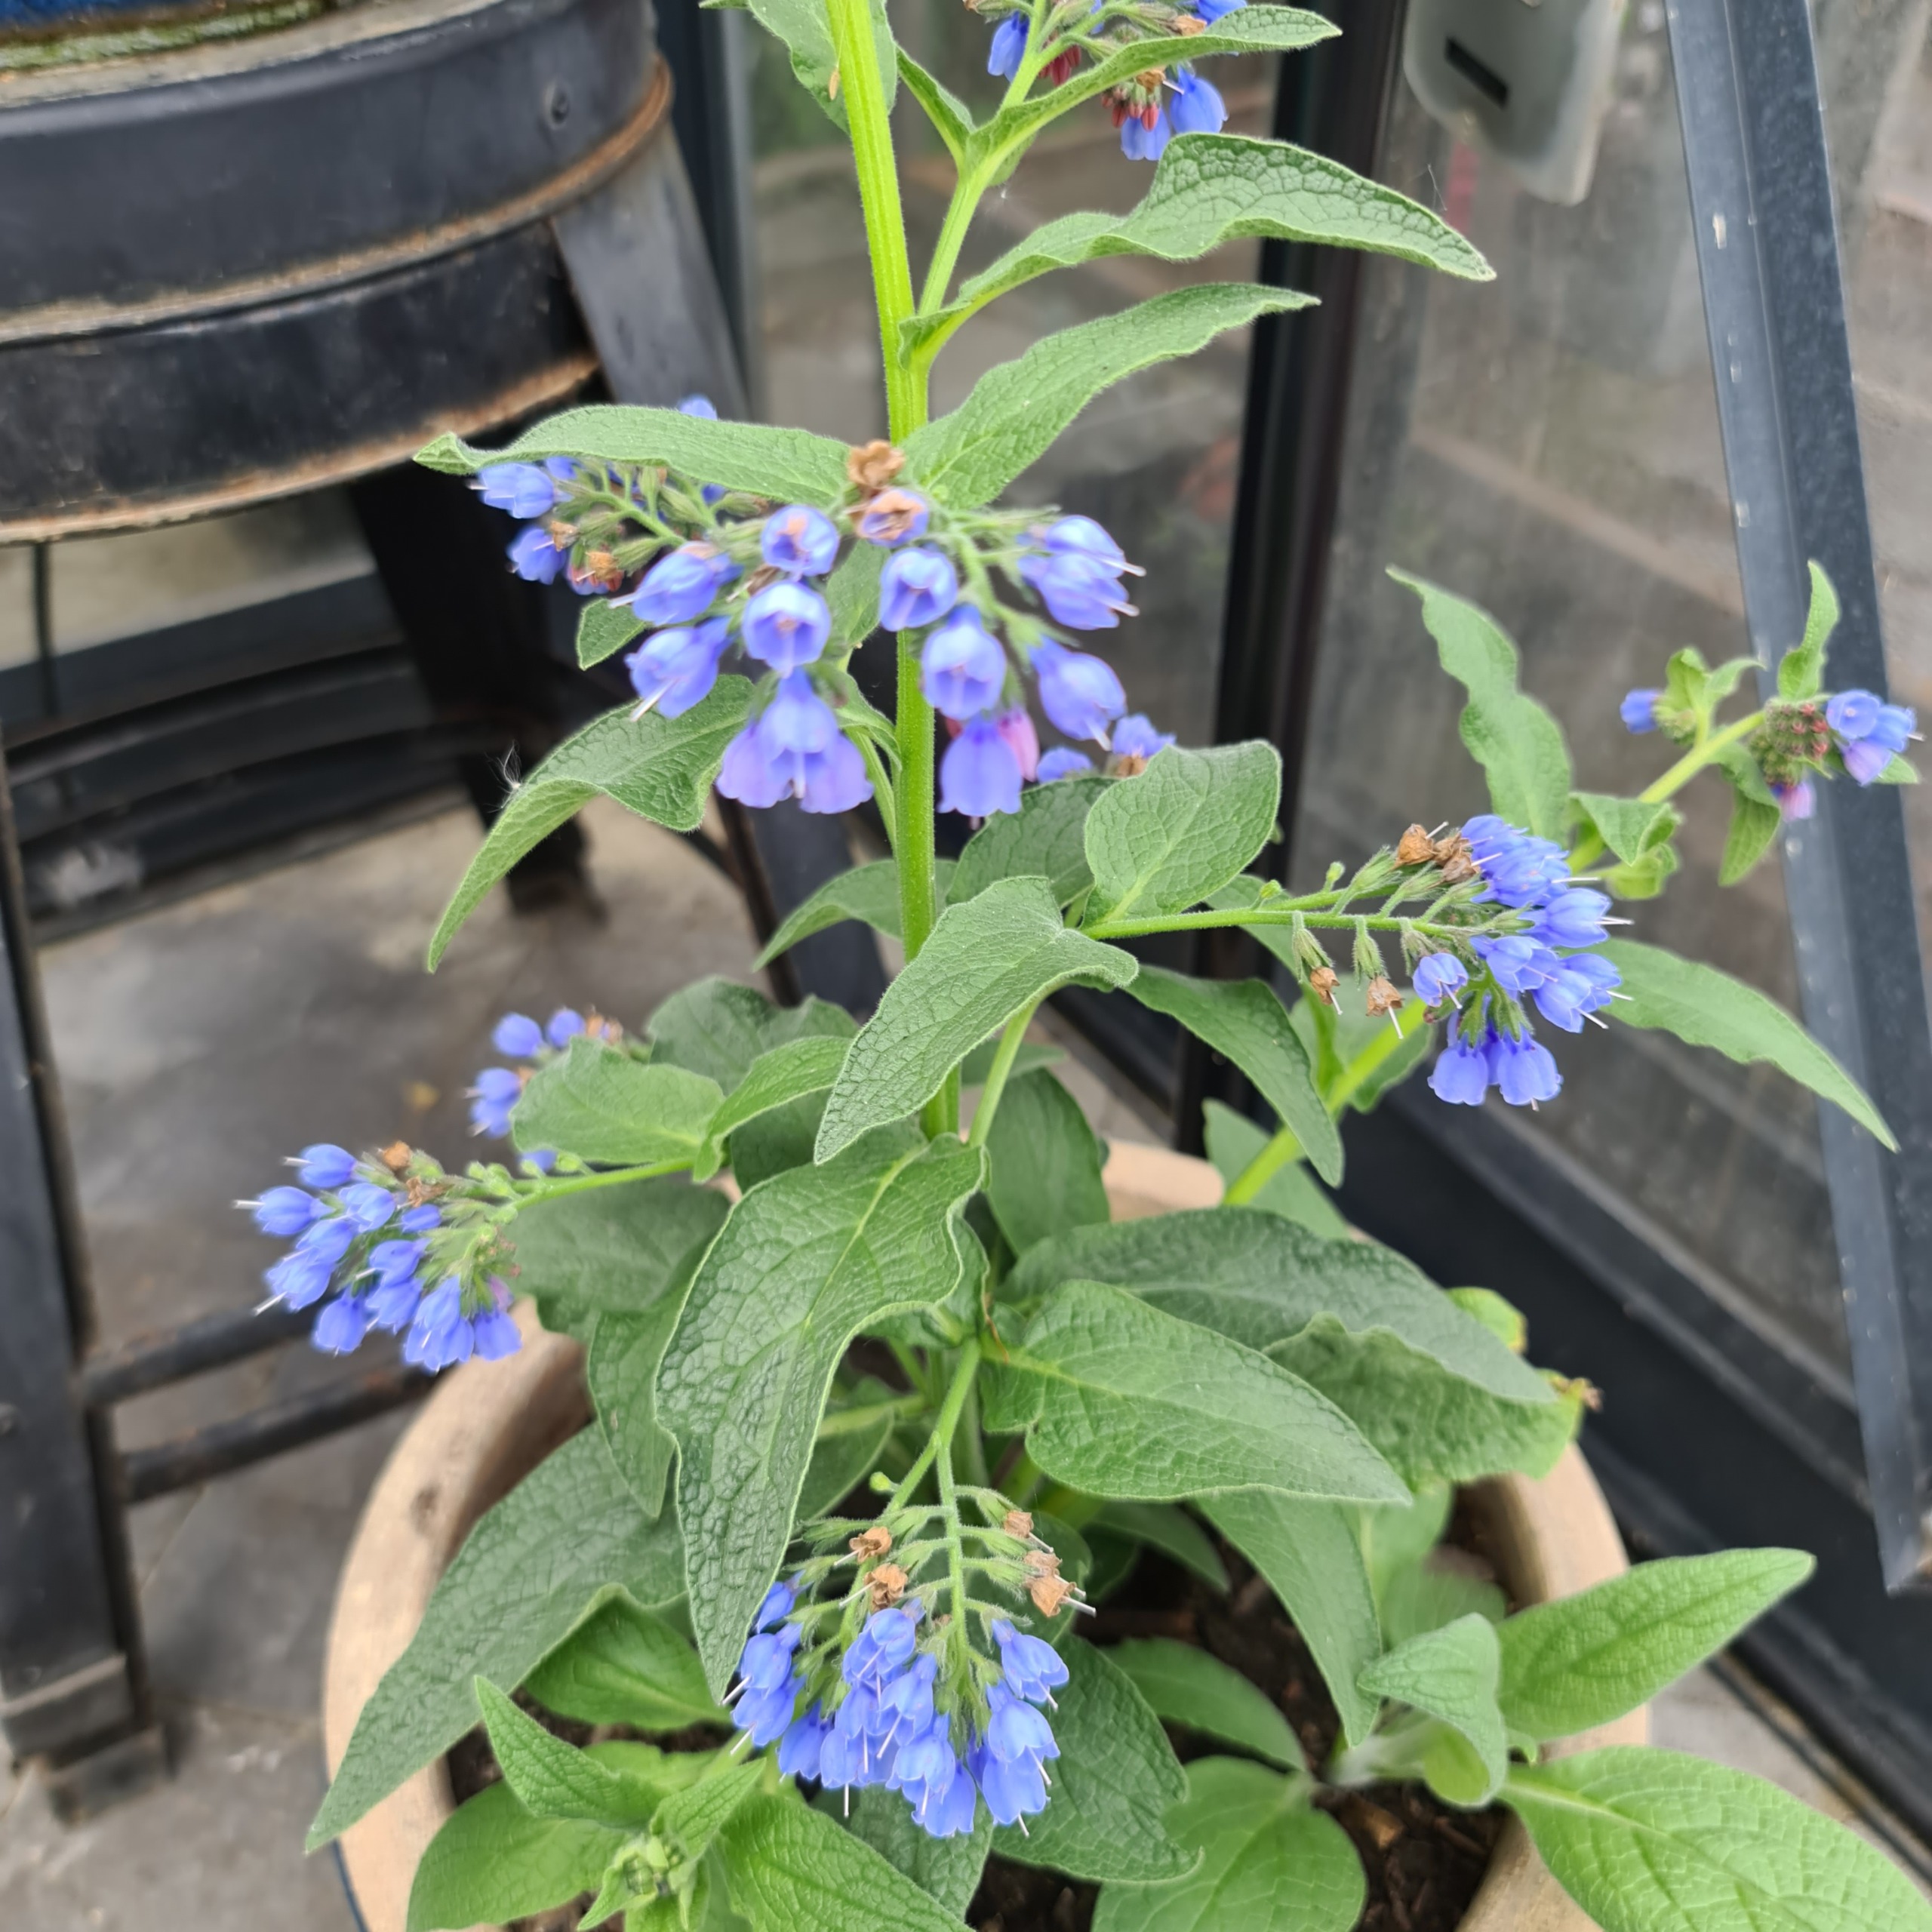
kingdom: Plantae
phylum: Tracheophyta
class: Magnoliopsida
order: Boraginales
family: Boraginaceae
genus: Symphytum
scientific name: Symphytum uplandicum
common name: Foder-kulsukker
